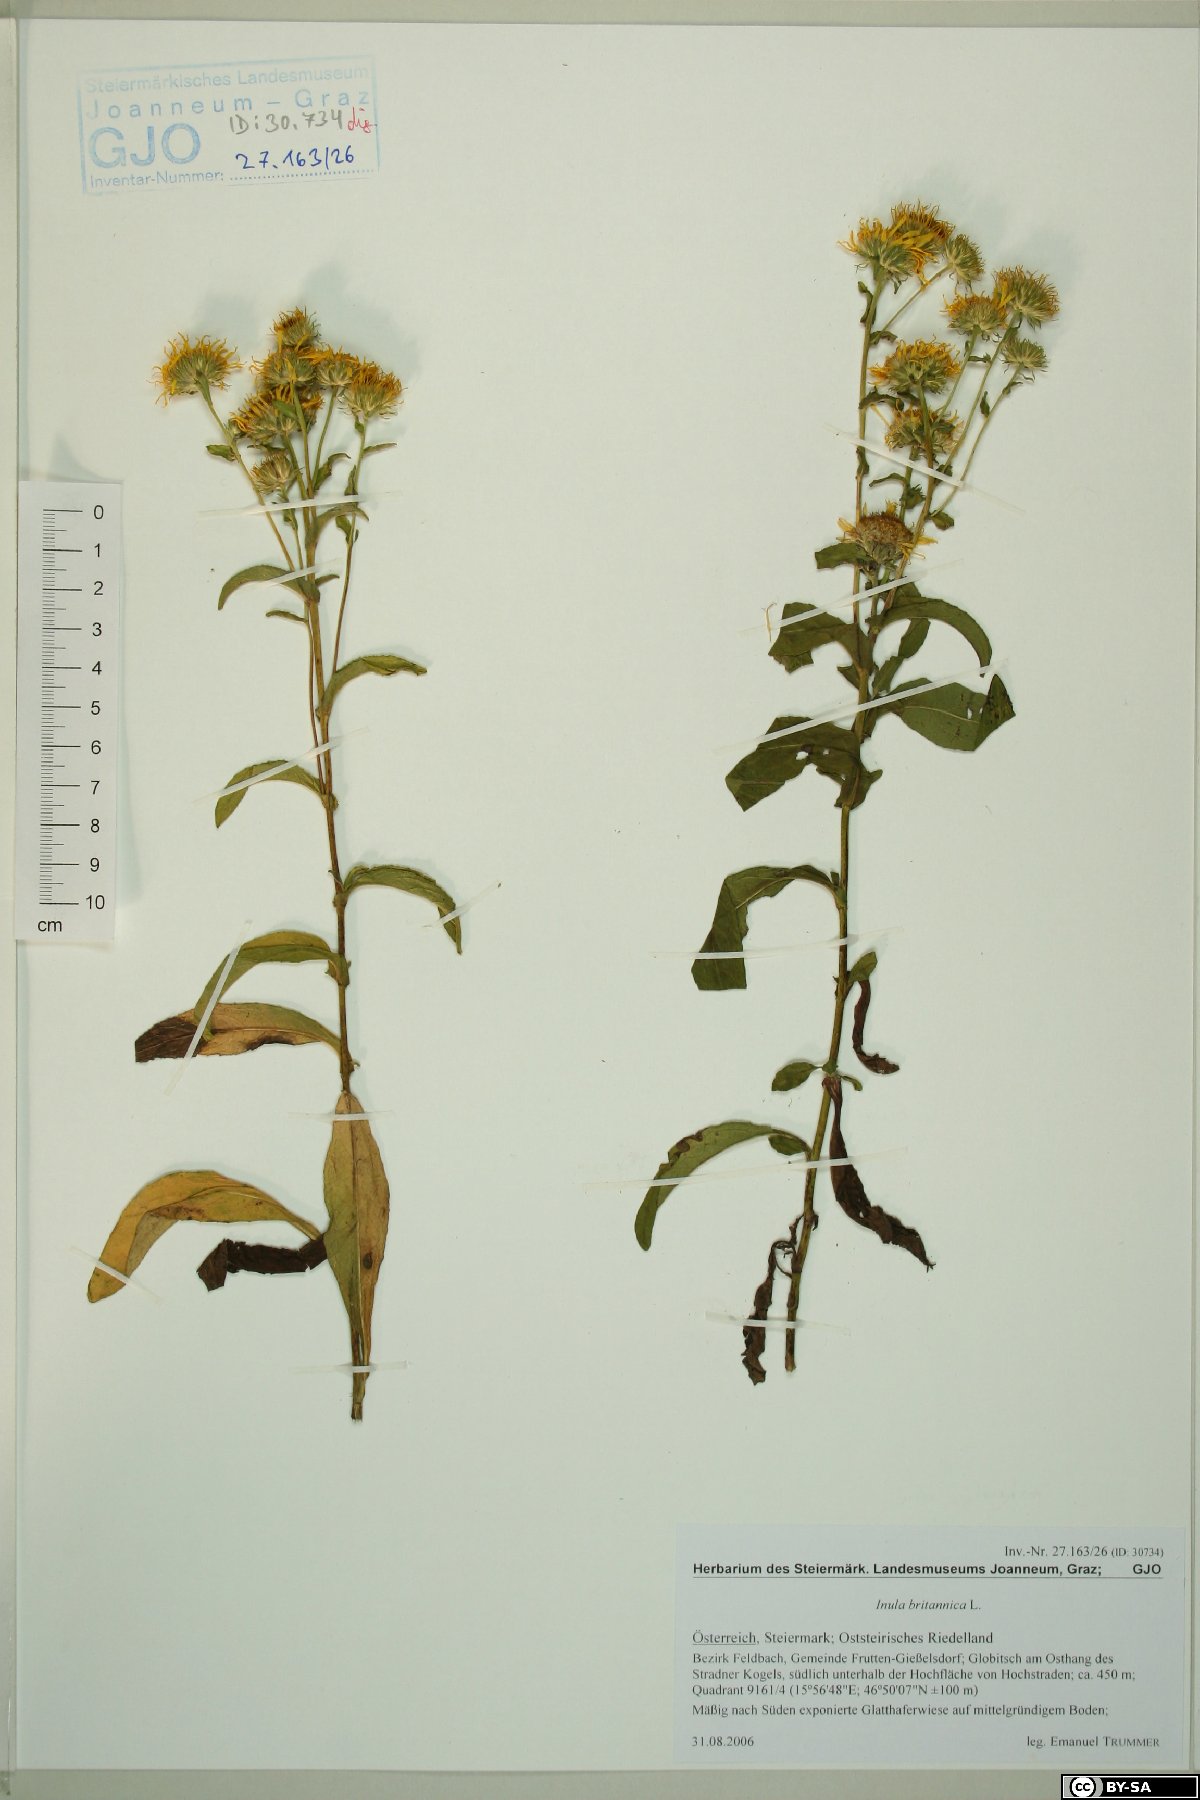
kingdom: Plantae
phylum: Tracheophyta
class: Magnoliopsida
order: Asterales
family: Asteraceae
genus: Pentanema
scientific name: Pentanema britannicum
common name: British elecampane
